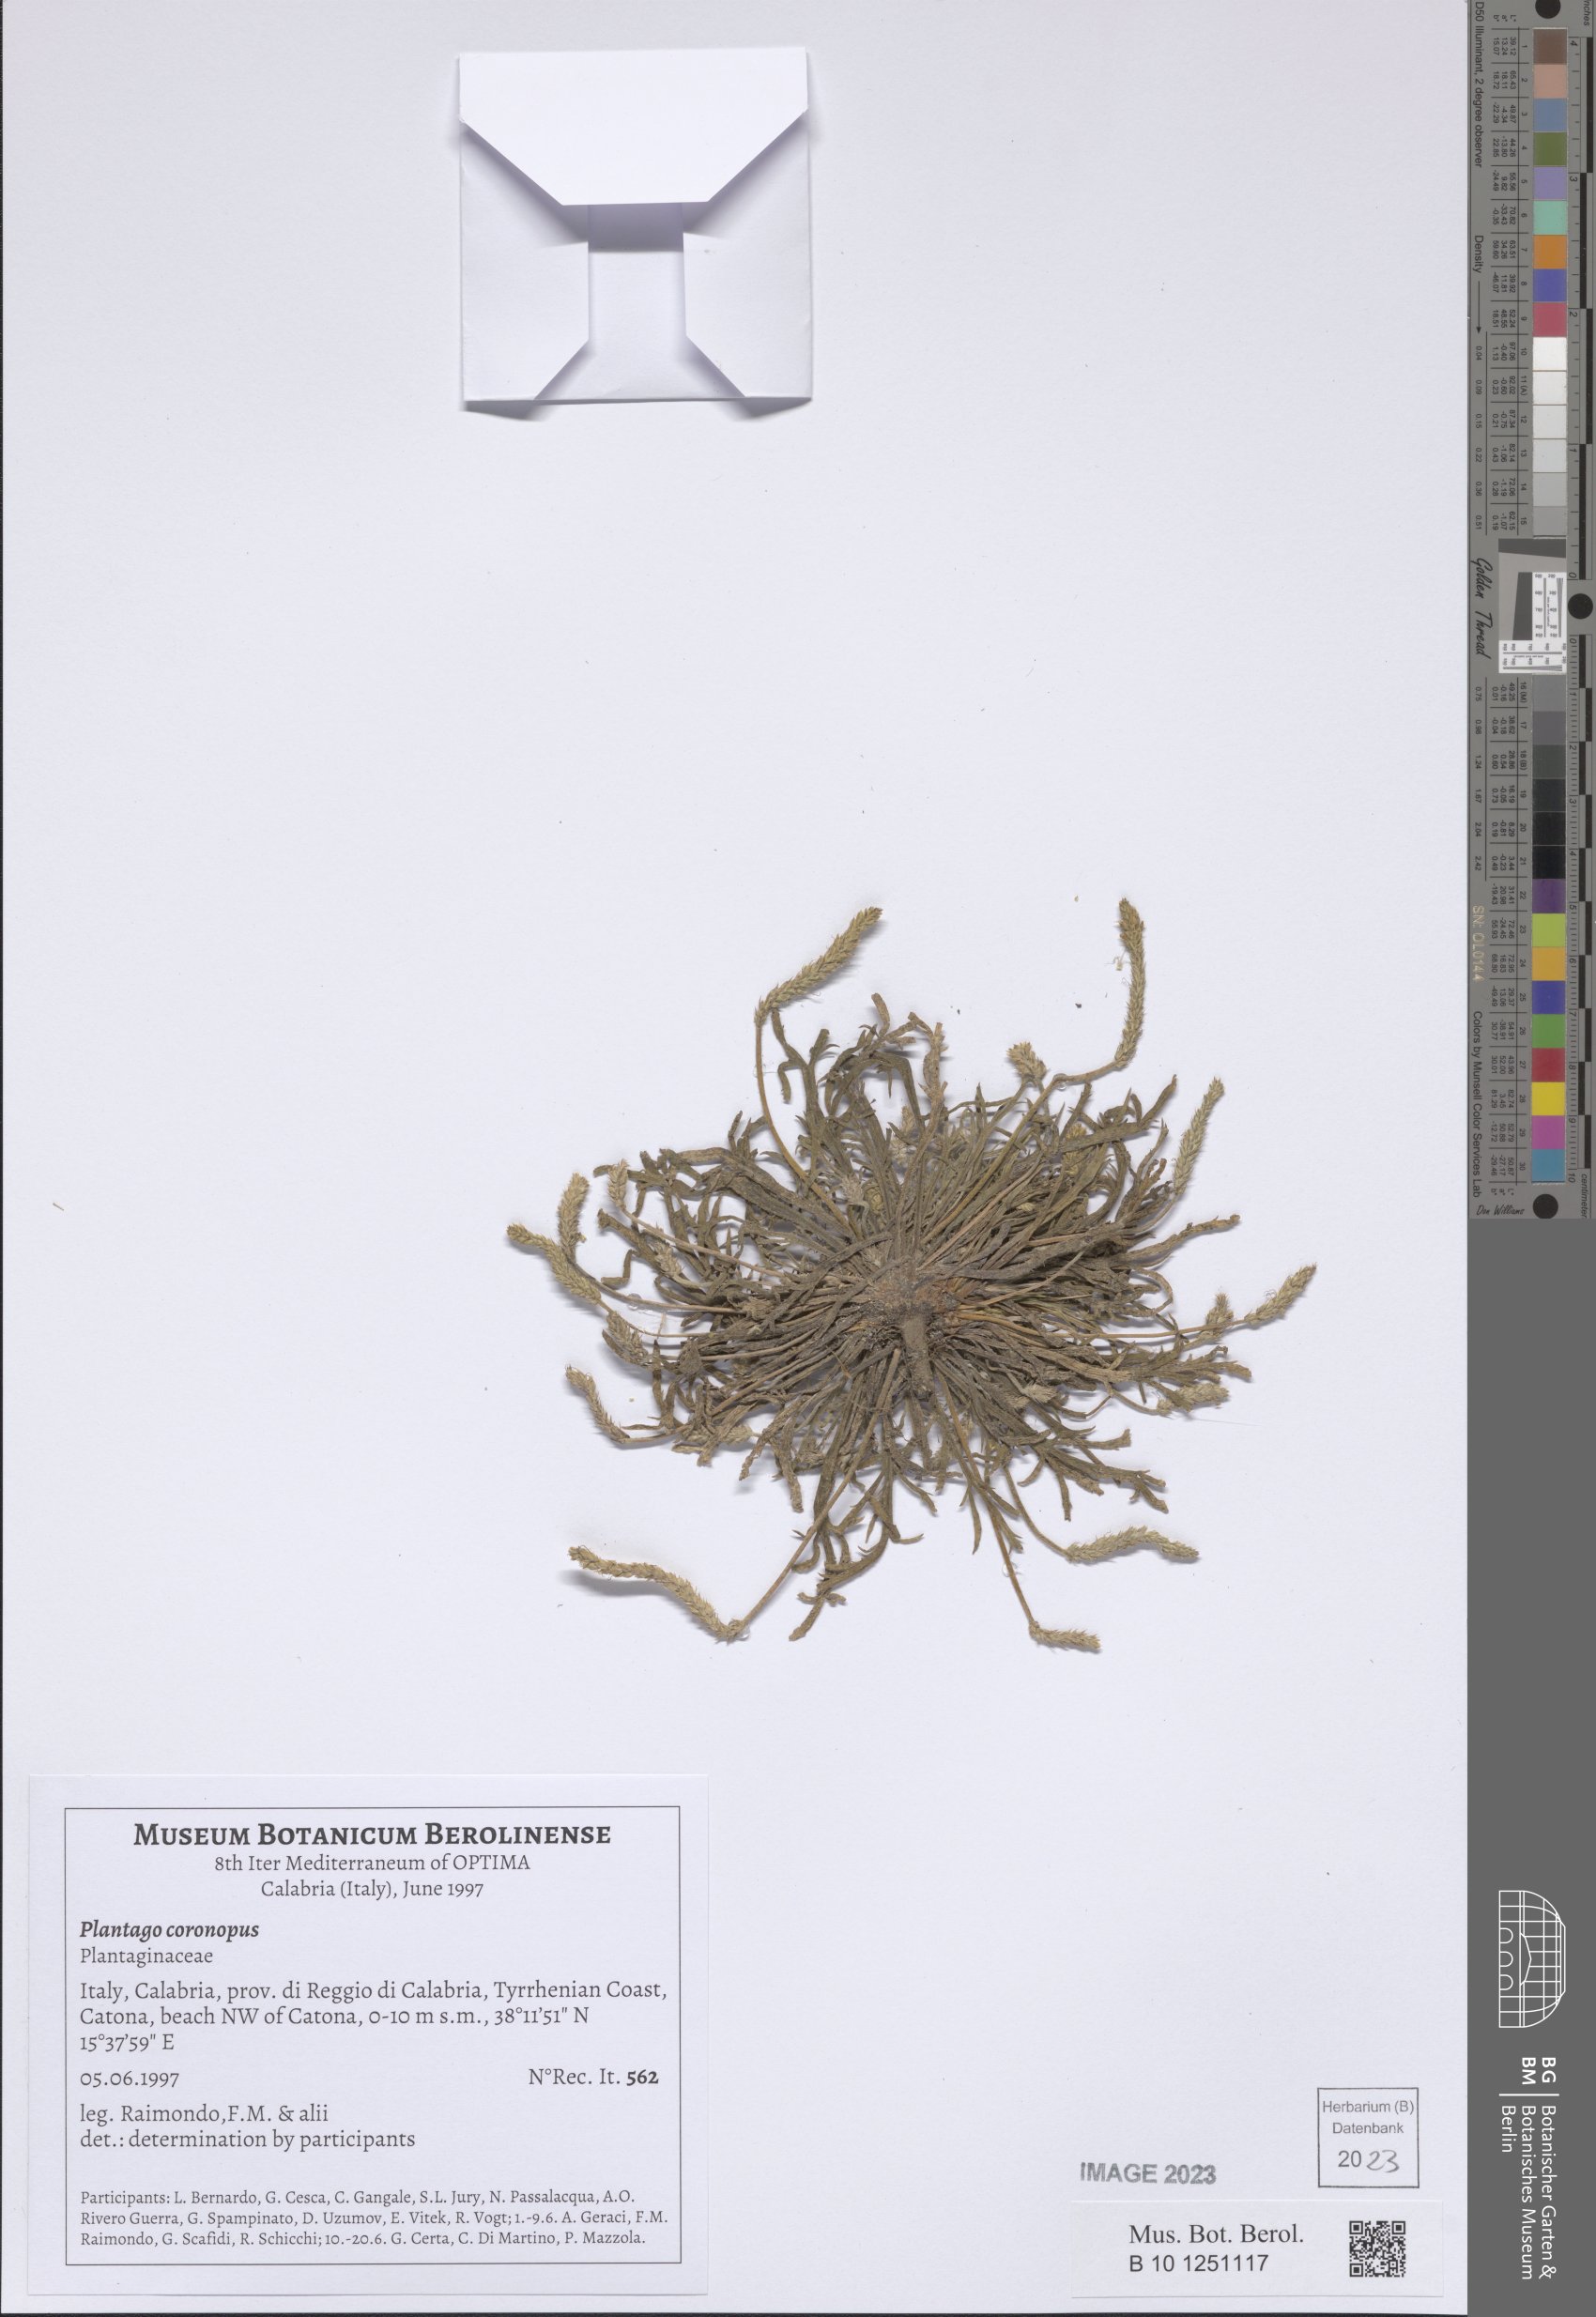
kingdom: Plantae
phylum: Tracheophyta
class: Magnoliopsida
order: Lamiales
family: Plantaginaceae
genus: Plantago
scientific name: Plantago coronopus
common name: Buck's-horn plantain
